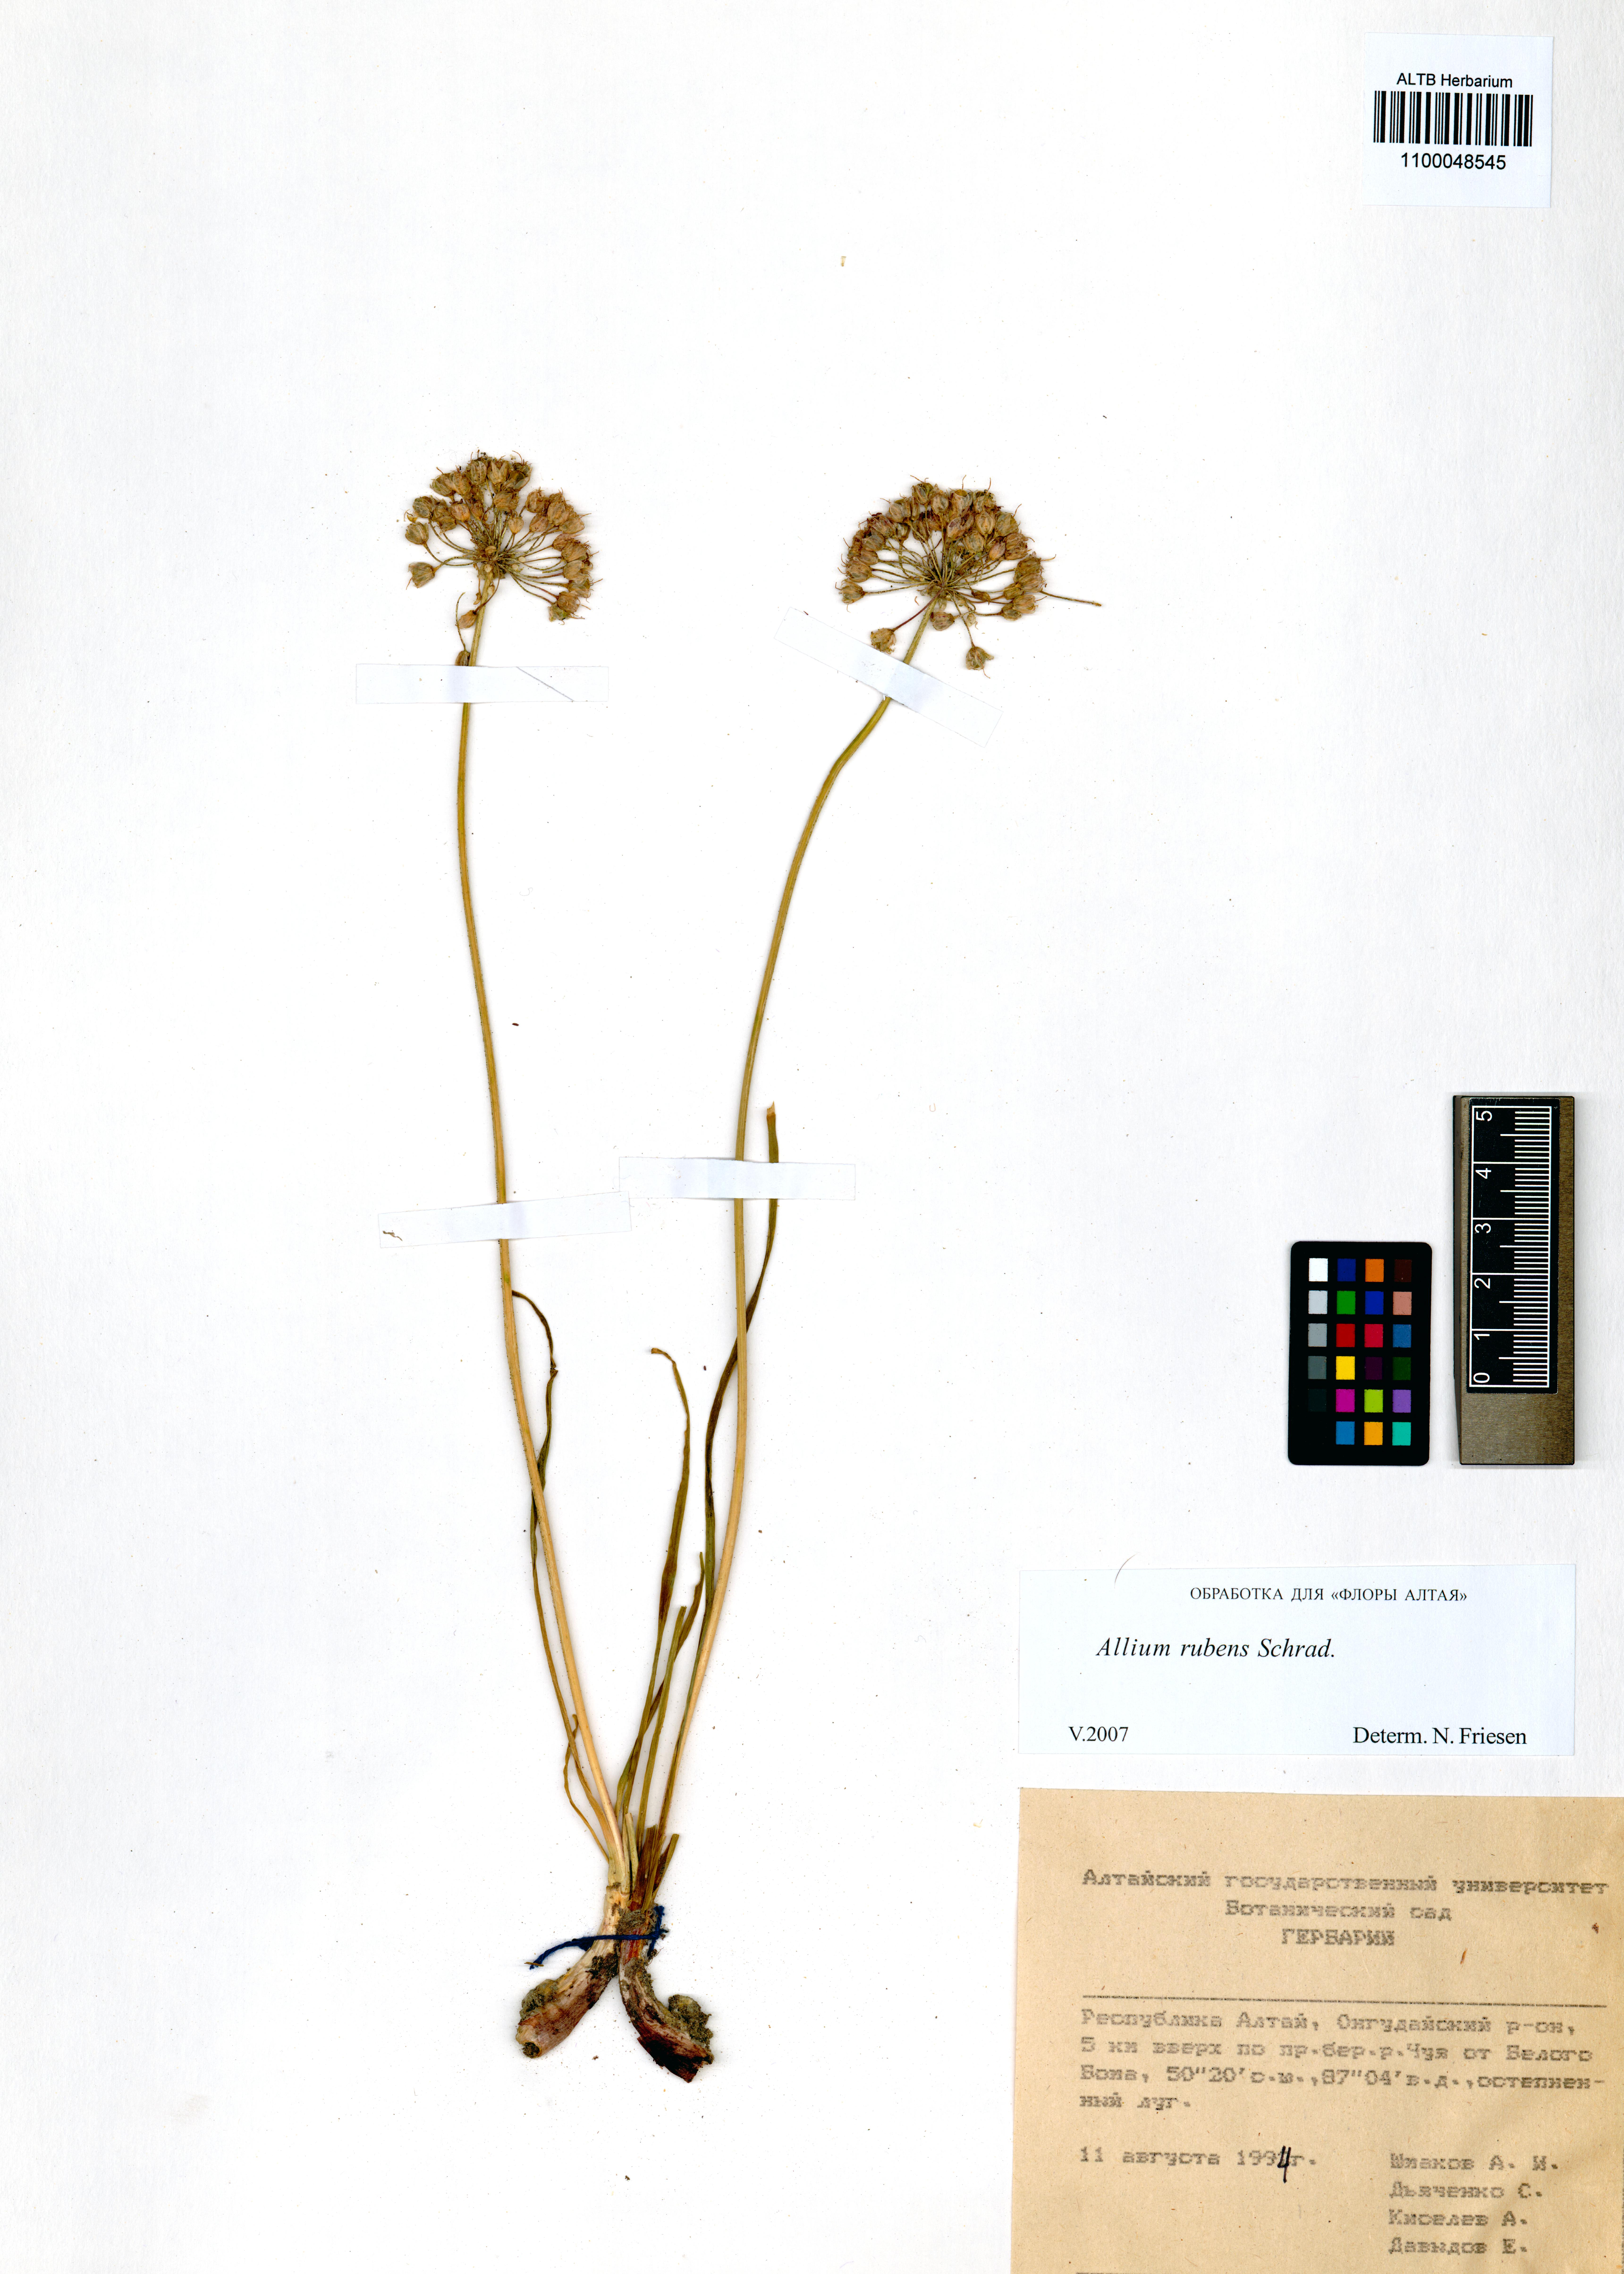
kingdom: Plantae
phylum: Tracheophyta
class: Liliopsida
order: Asparagales
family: Amaryllidaceae
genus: Allium
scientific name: Allium rubens
